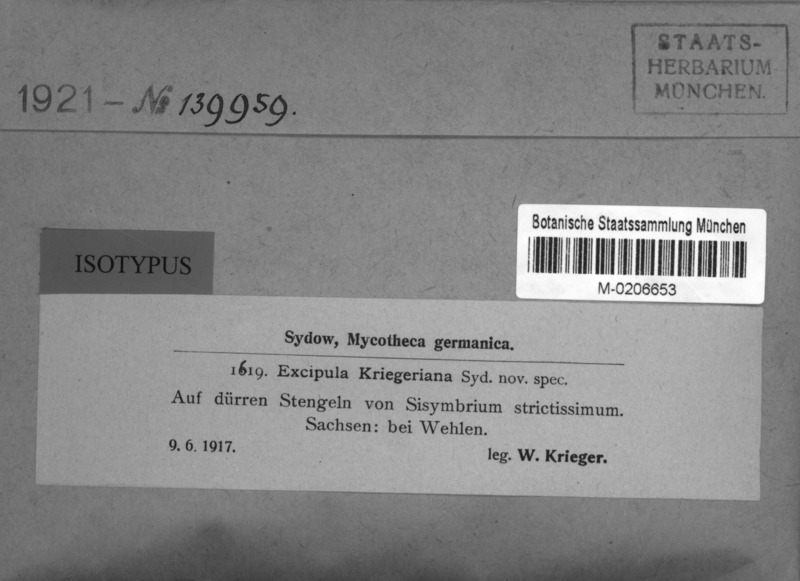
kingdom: Fungi
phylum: Ascomycota
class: Leotiomycetes
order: Helotiales
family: Ploettnerulaceae
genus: Pyrenopeziza
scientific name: Pyrenopeziza kriegeriana
